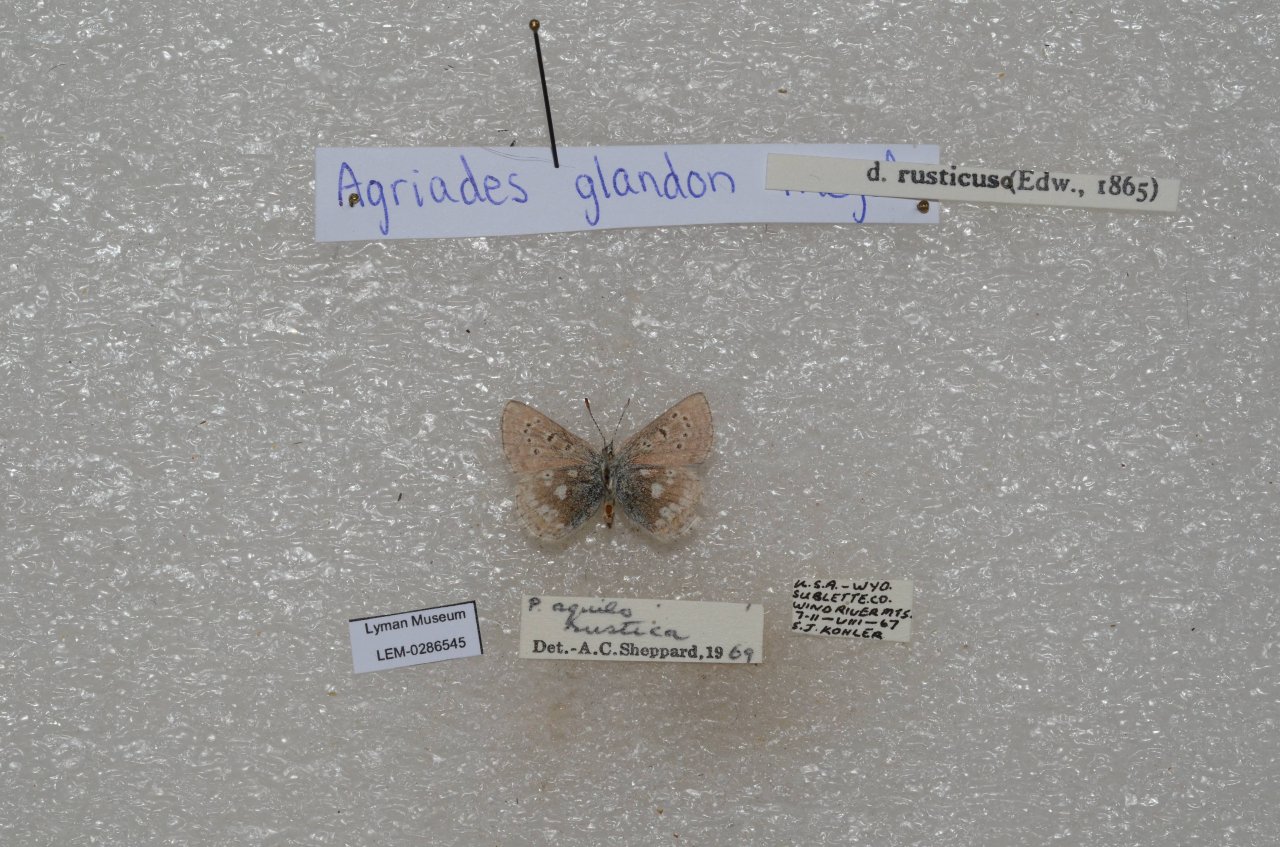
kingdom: Animalia
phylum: Arthropoda
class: Insecta
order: Lepidoptera
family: Lycaenidae
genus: Agriades
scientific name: Agriades glandon
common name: Arctic Blue
